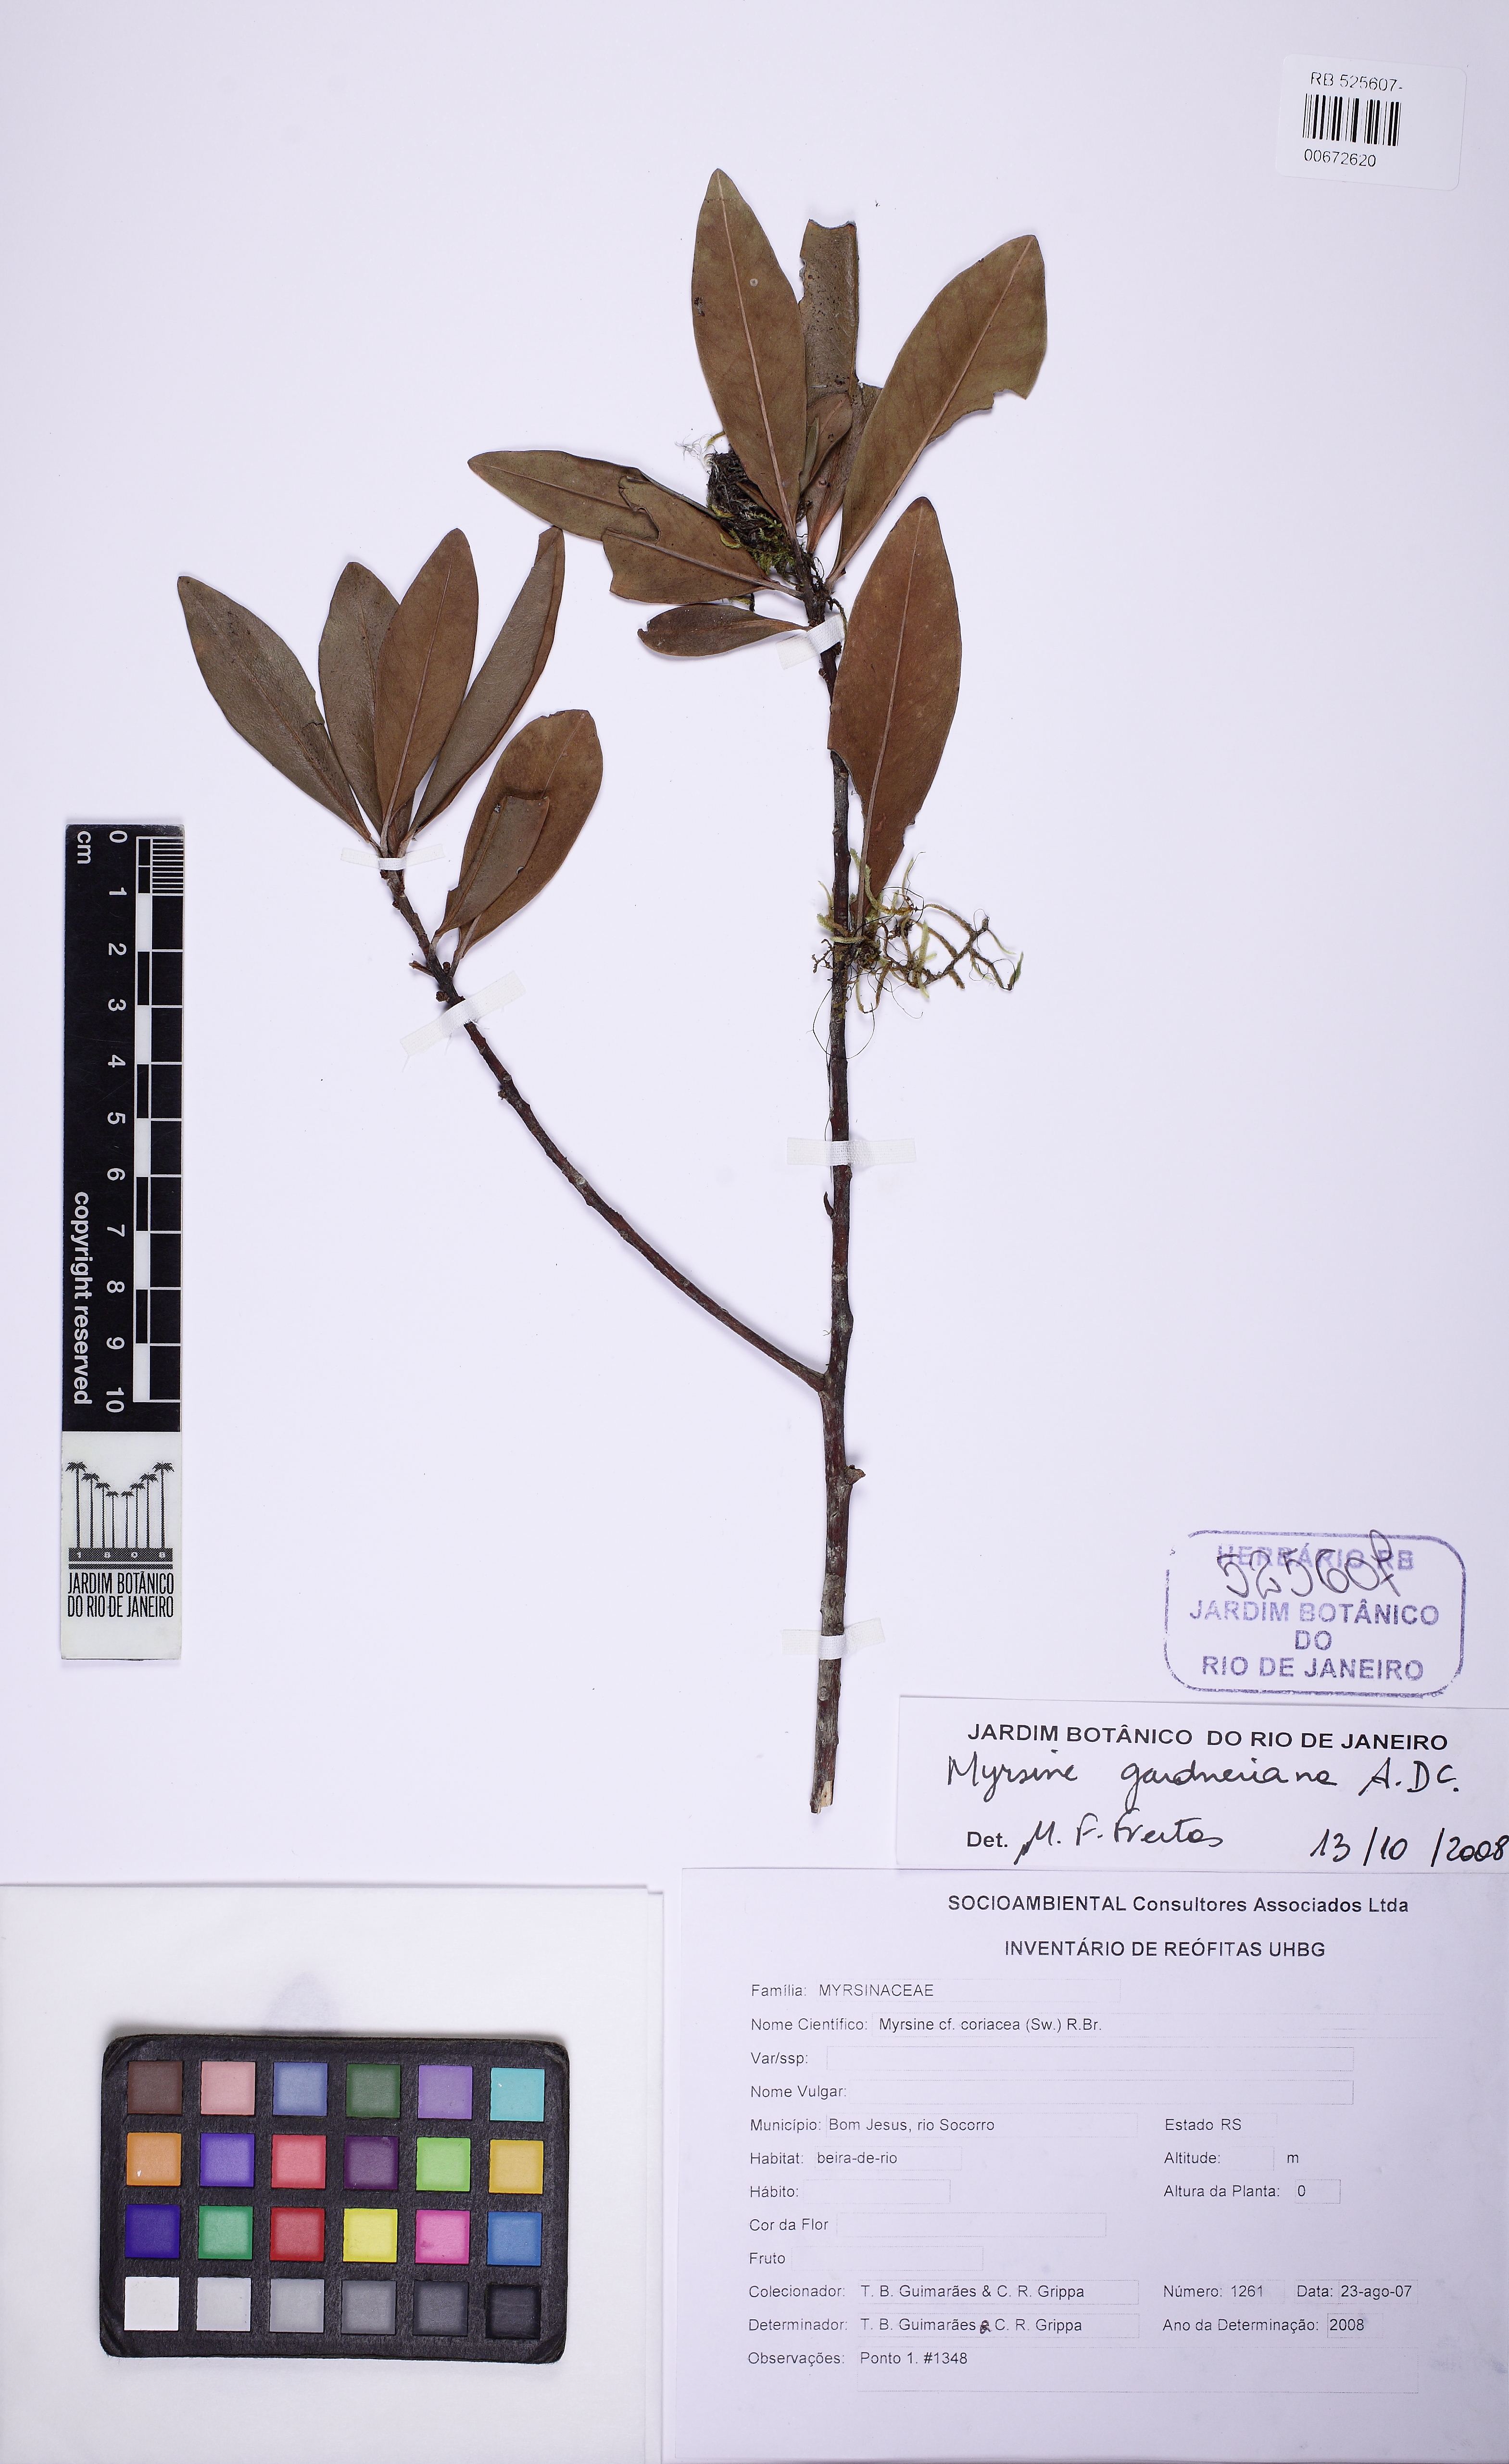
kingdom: Plantae
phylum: Tracheophyta
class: Magnoliopsida
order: Ericales
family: Primulaceae
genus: Myrsine
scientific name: Myrsine gardneriana
